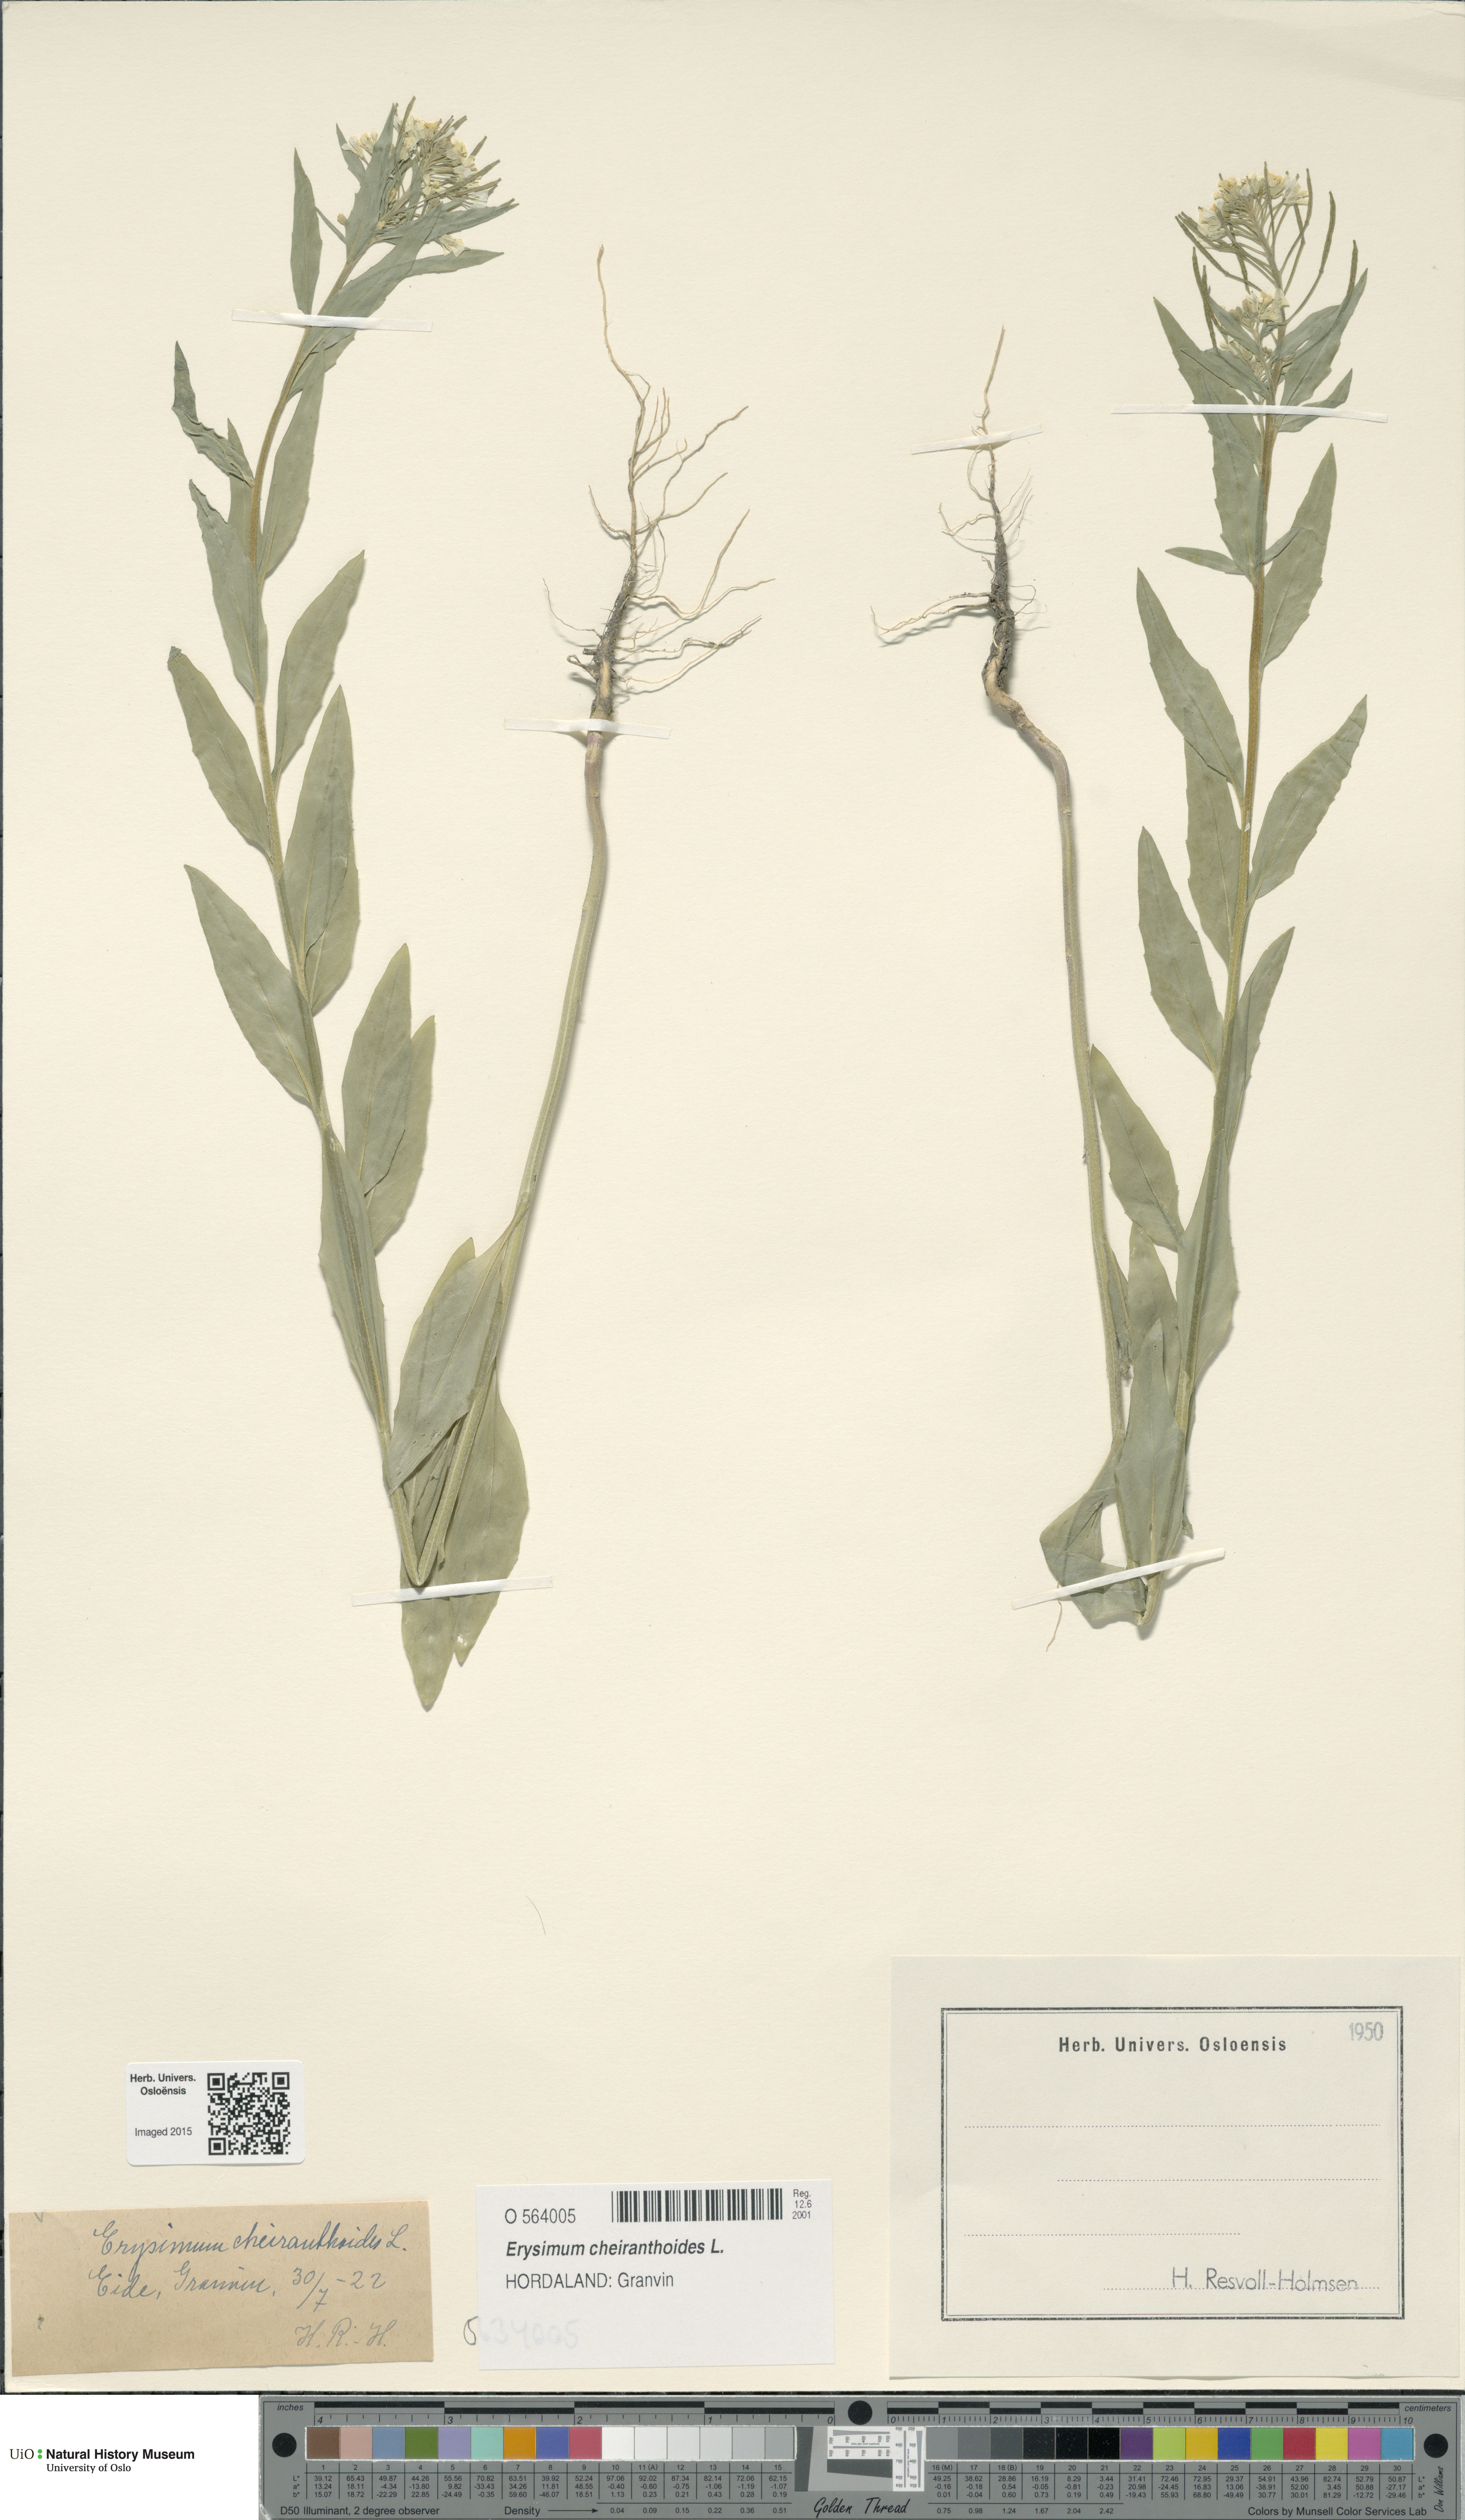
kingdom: Plantae
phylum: Tracheophyta
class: Magnoliopsida
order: Brassicales
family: Brassicaceae
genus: Erysimum
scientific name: Erysimum cheiranthoides
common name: Treacle mustard
